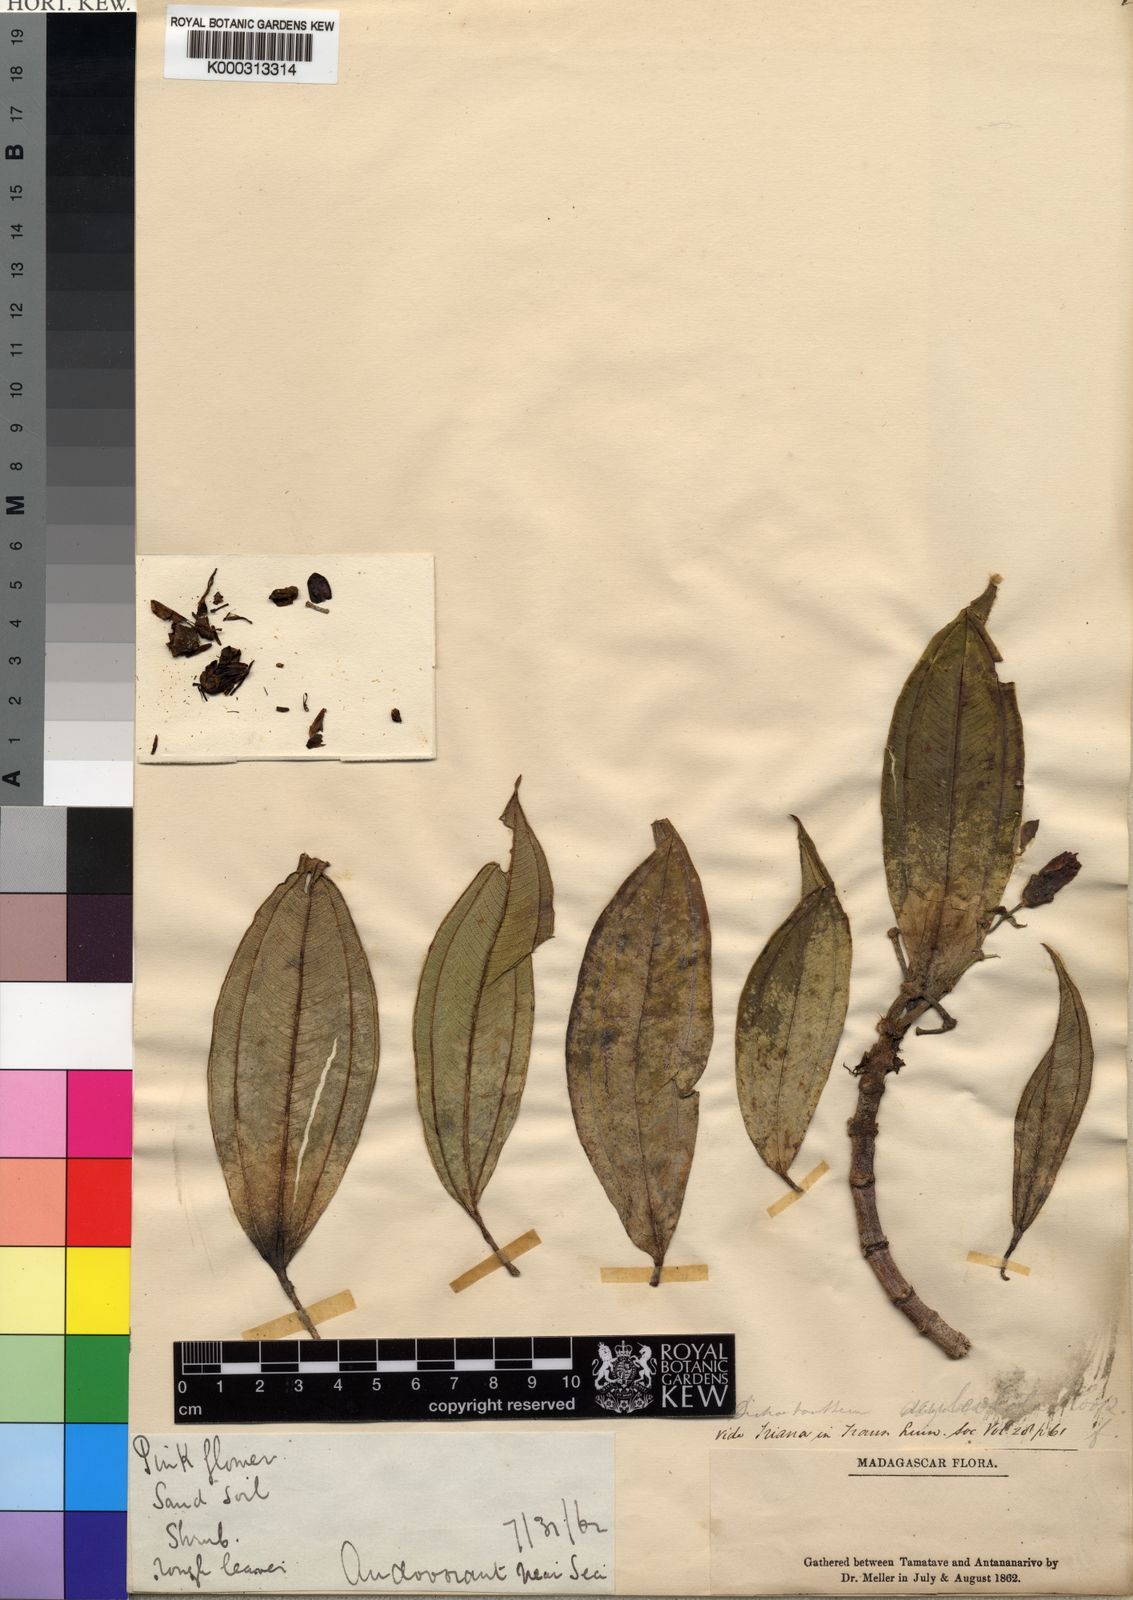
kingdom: Plantae
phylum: Tracheophyta
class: Magnoliopsida
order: Myrtales
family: Melastomataceae
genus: Dichaetanthera
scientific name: Dichaetanthera articulata
